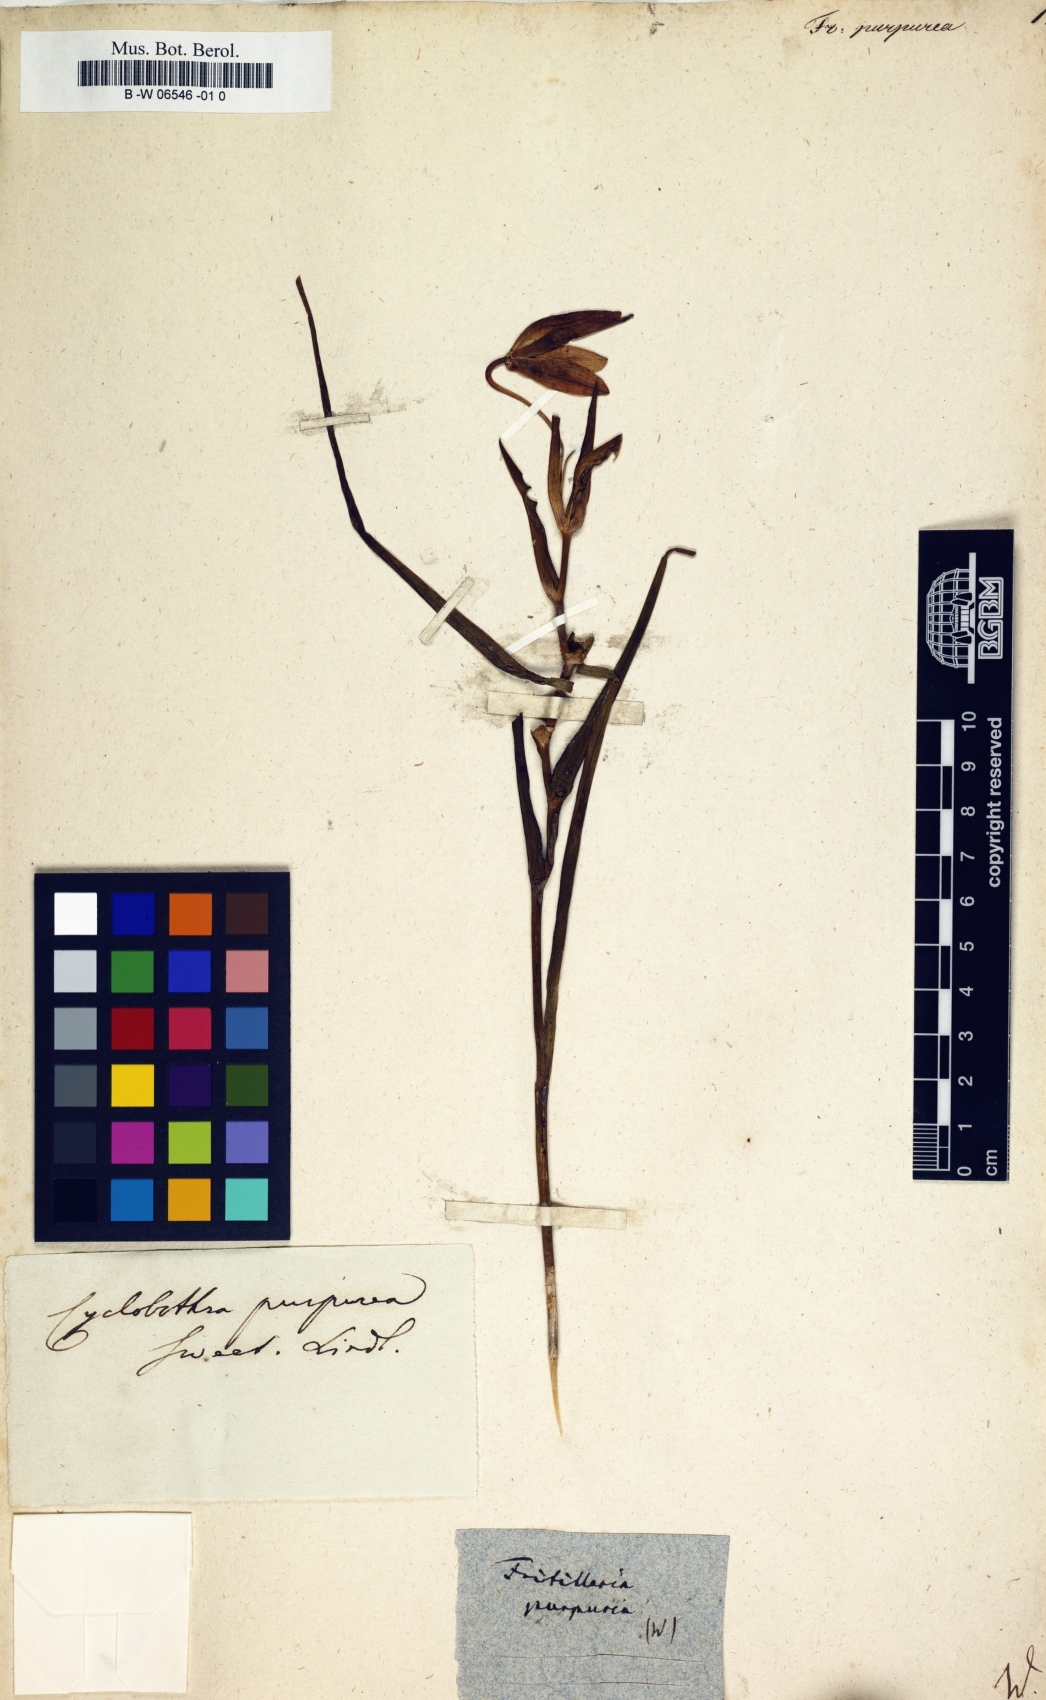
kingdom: Plantae
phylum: Tracheophyta
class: Liliopsida
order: Liliales
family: Liliaceae
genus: Calochortus
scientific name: Calochortus purpureus
